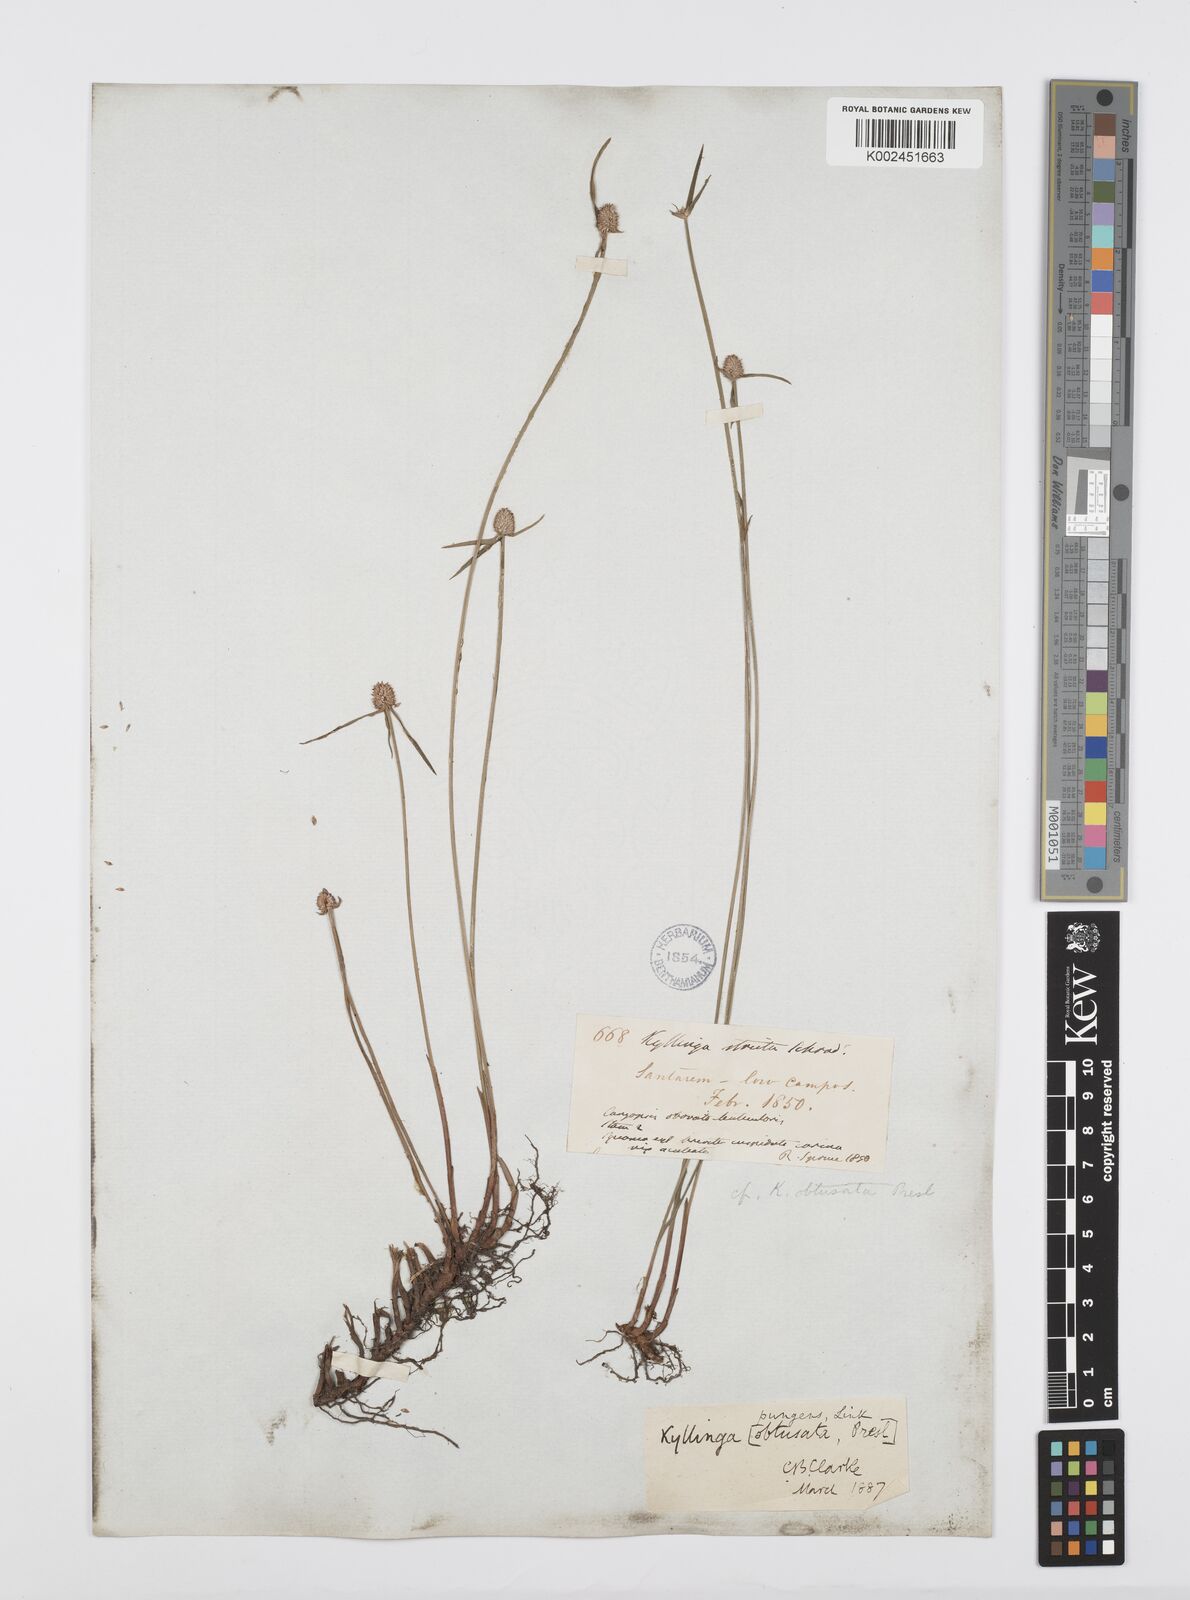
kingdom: Plantae
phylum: Tracheophyta
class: Liliopsida
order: Poales
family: Cyperaceae
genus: Cyperus
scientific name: Cyperus obtusatus
